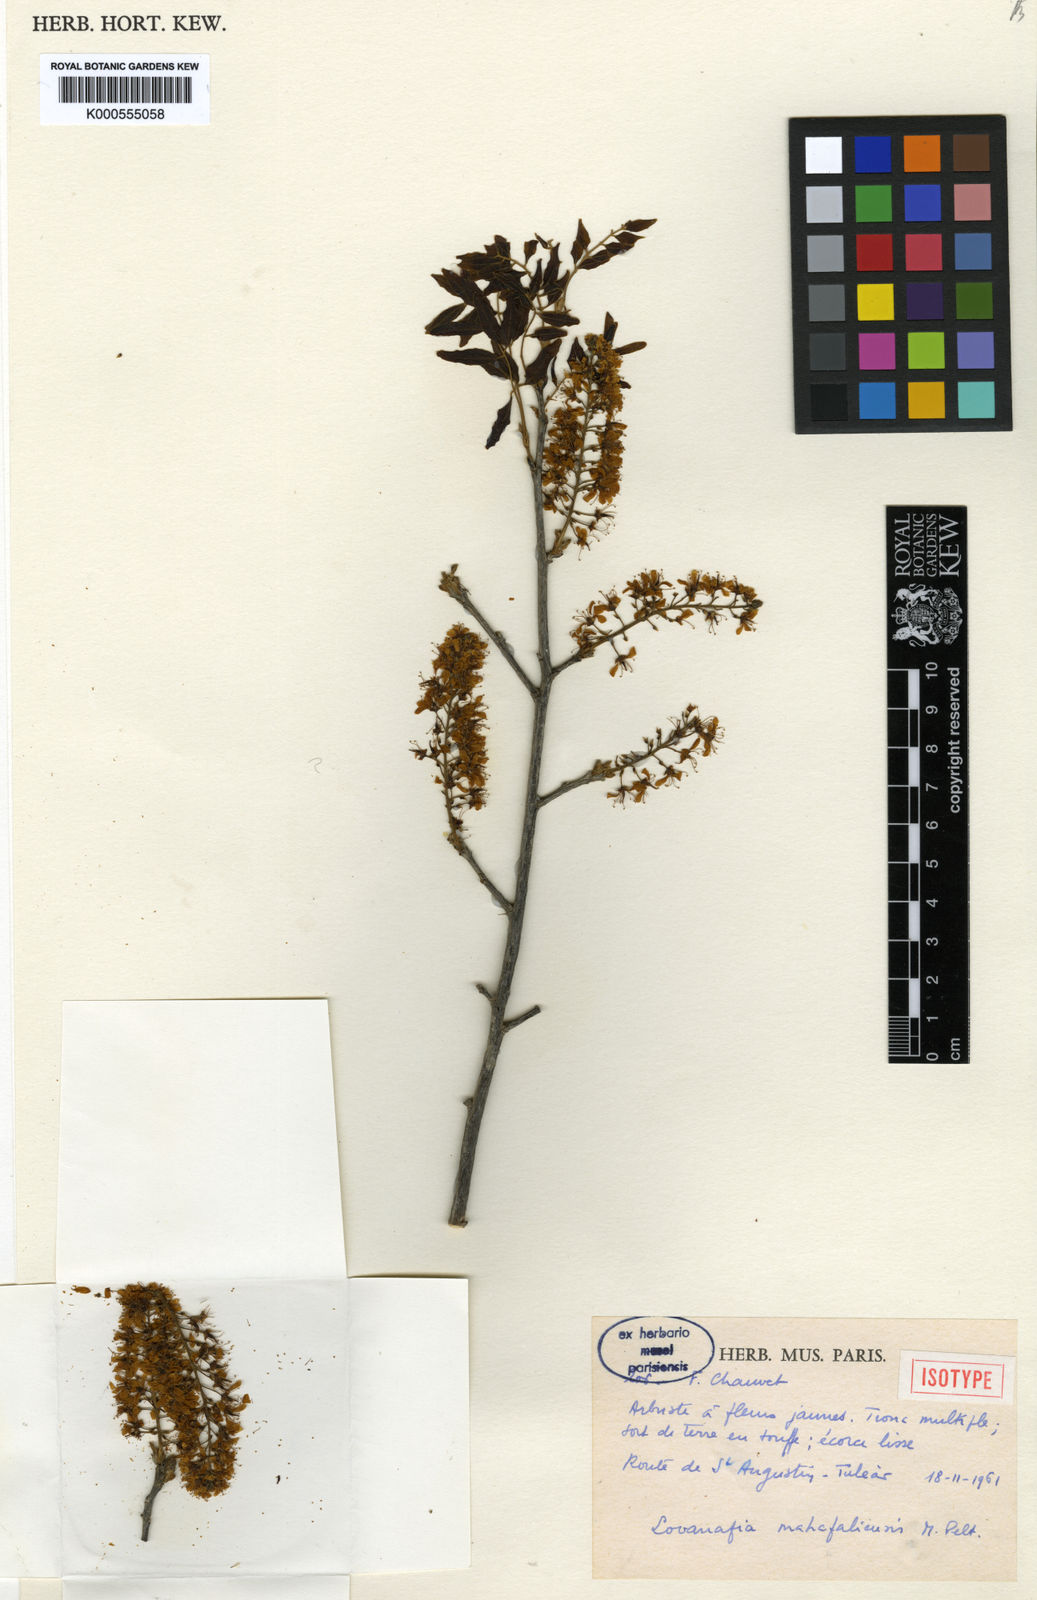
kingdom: Plantae
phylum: Tracheophyta
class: Magnoliopsida
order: Fabales
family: Fabaceae
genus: Dicraeopetalum
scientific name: Dicraeopetalum mahafaliense
